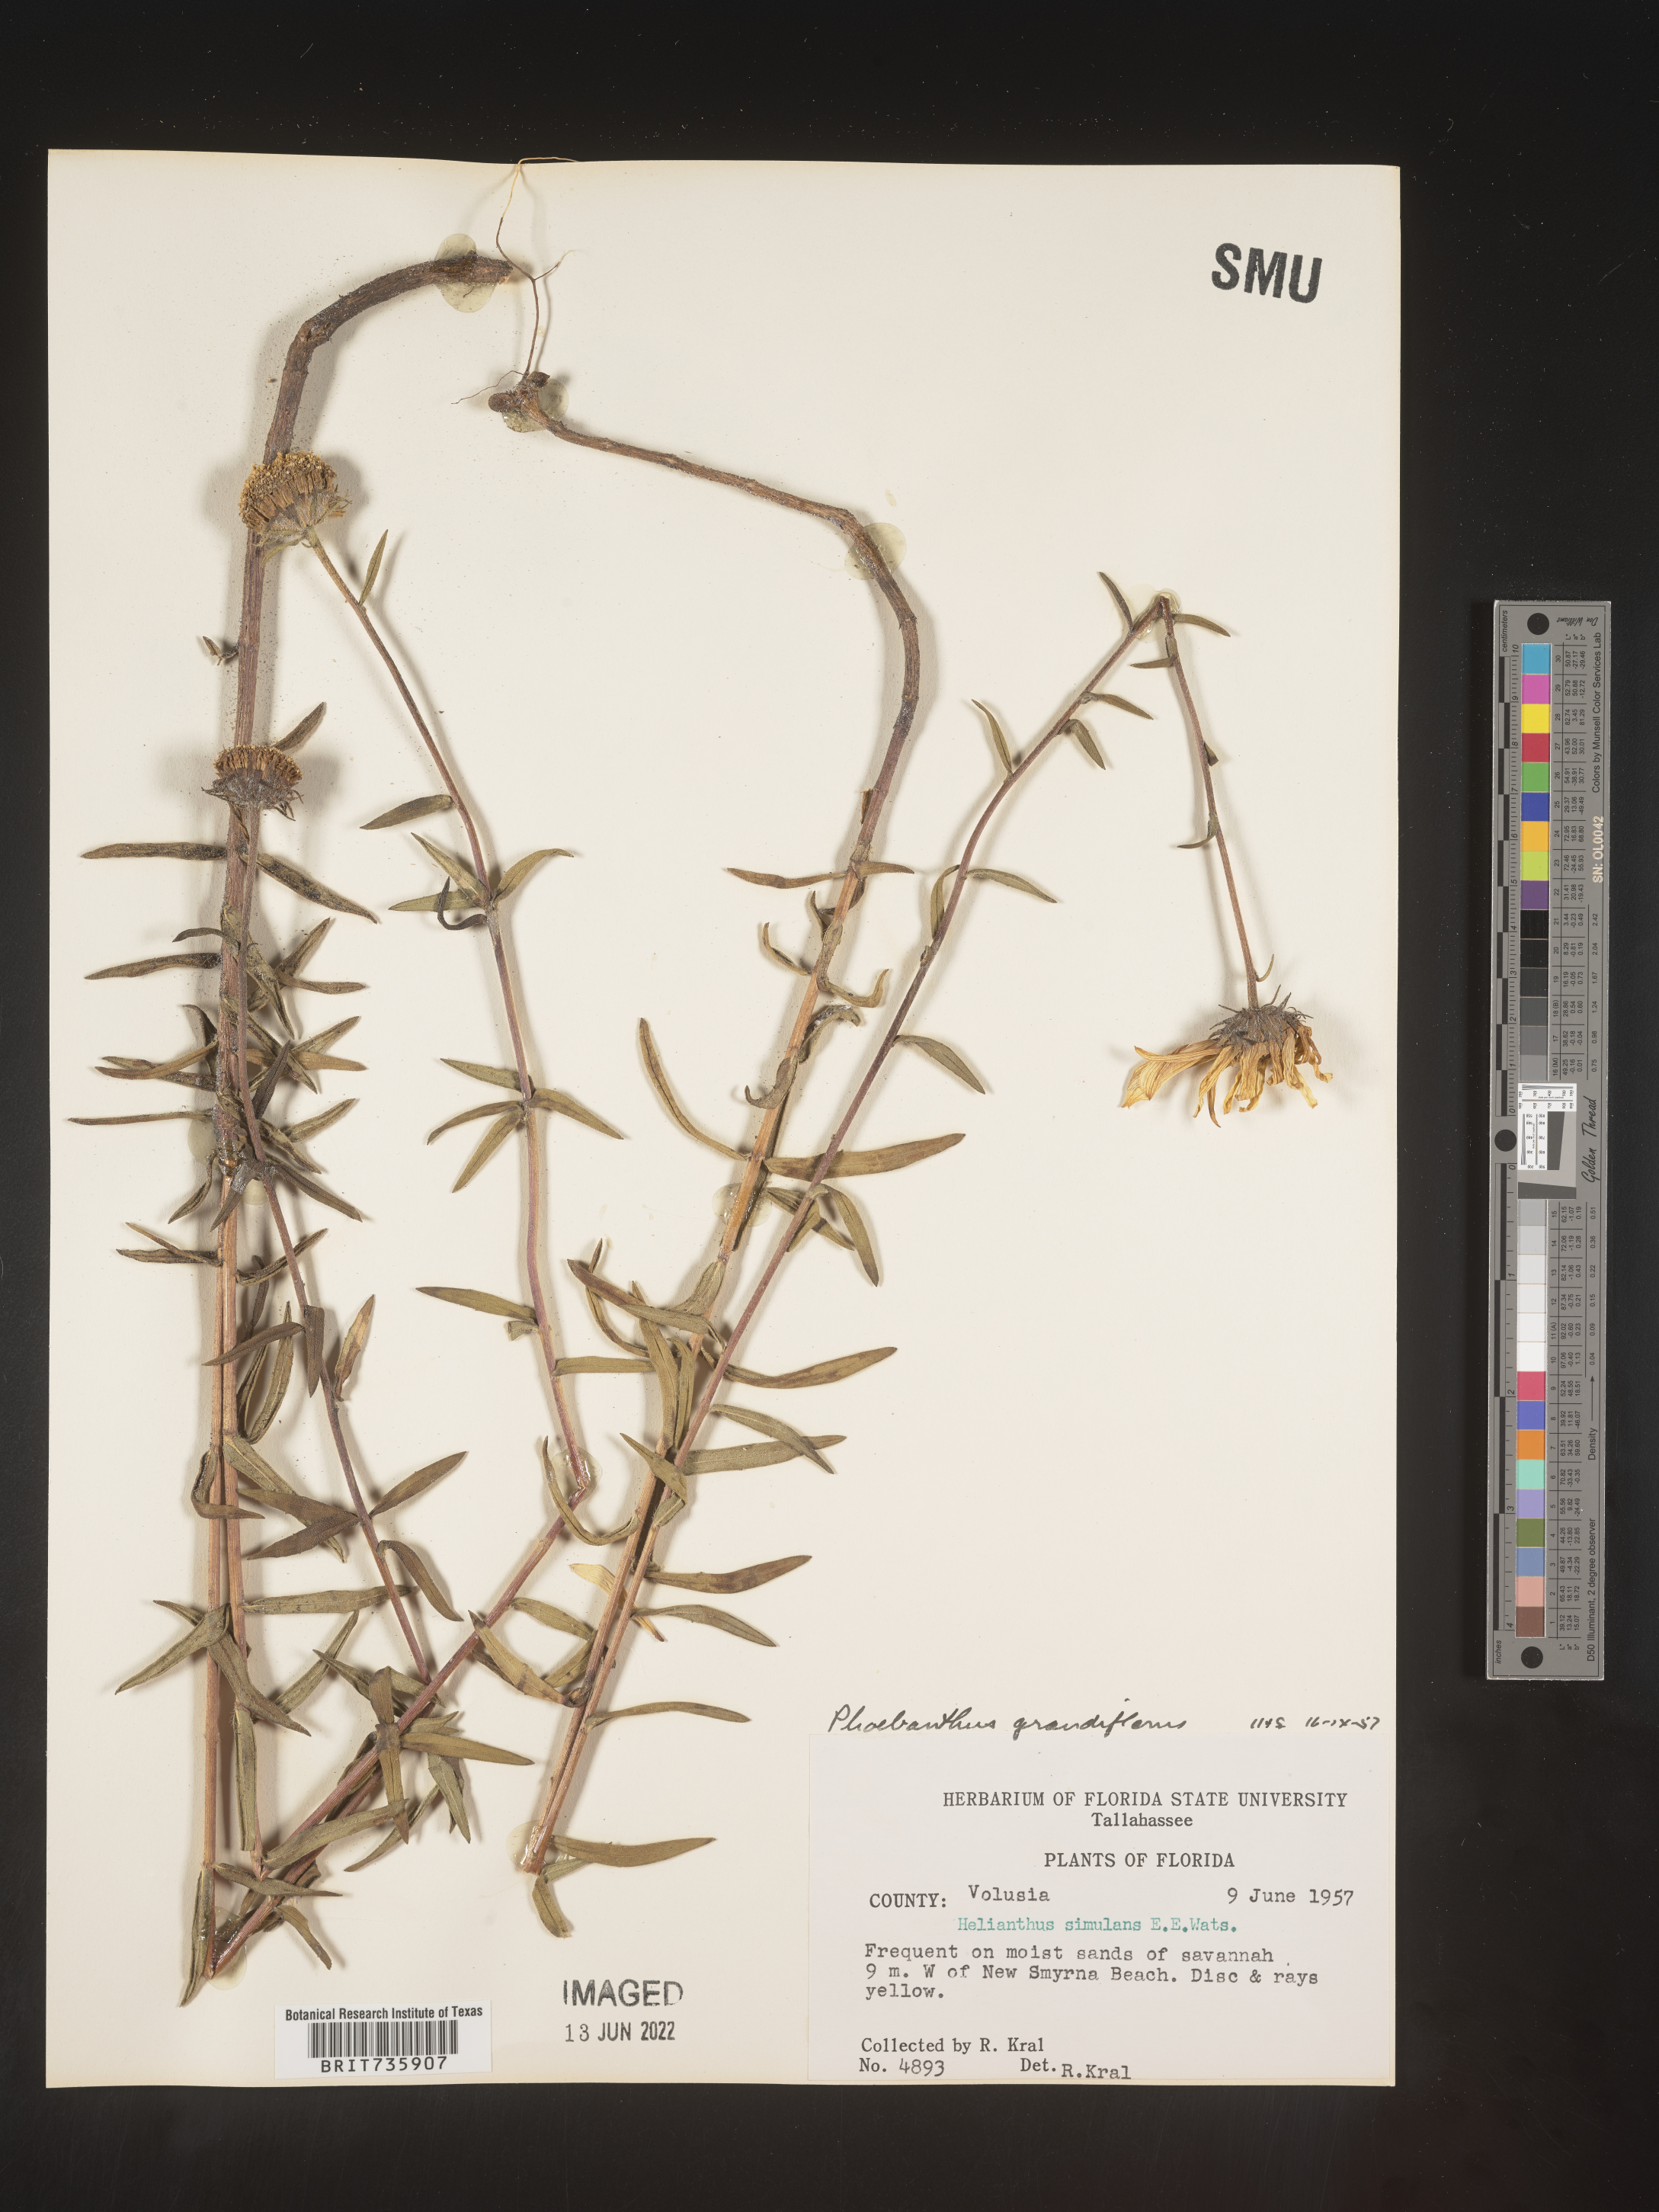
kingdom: Plantae
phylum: Tracheophyta
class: Magnoliopsida
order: Asterales
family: Asteraceae
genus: Phoebanthus
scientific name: Phoebanthus grandiflora
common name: Florida false sunflower
